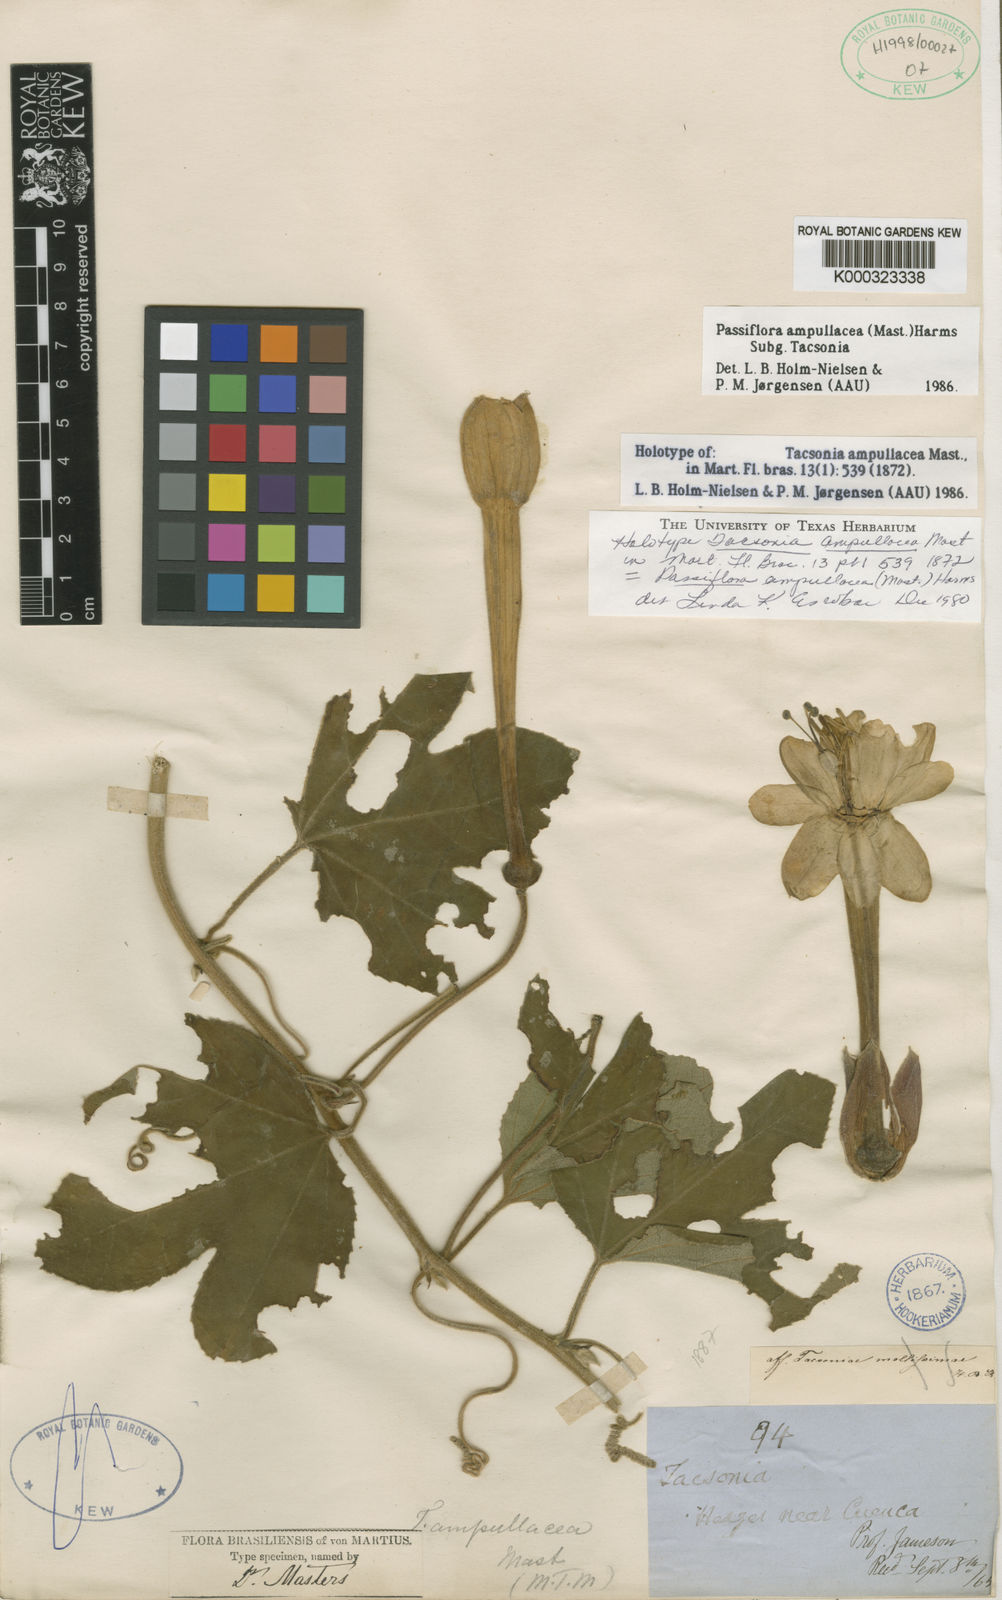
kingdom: Plantae
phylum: Tracheophyta
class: Magnoliopsida
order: Malpighiales
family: Passifloraceae
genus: Passiflora
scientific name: Passiflora ampullacea
